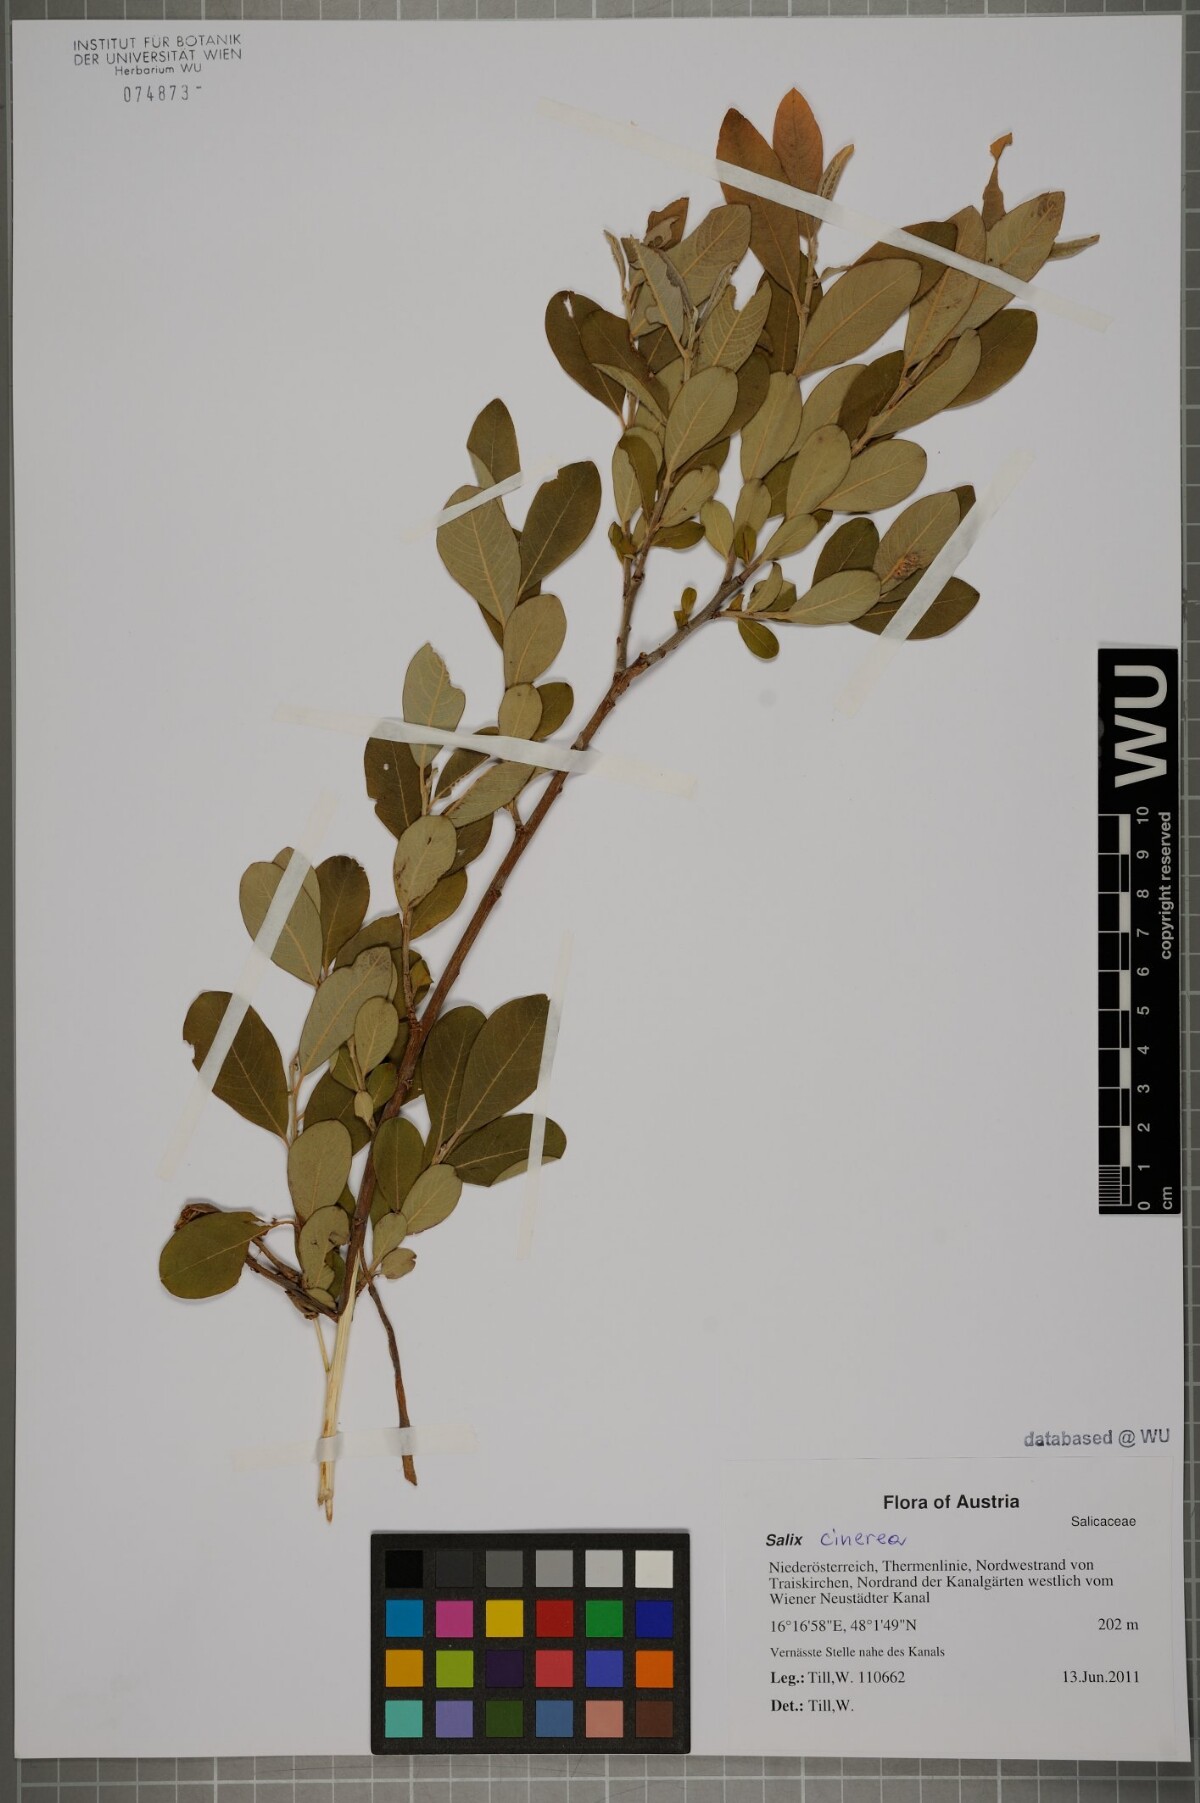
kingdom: Plantae
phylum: Tracheophyta
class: Magnoliopsida
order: Malpighiales
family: Salicaceae
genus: Salix
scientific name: Salix cinerea
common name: Common sallow
